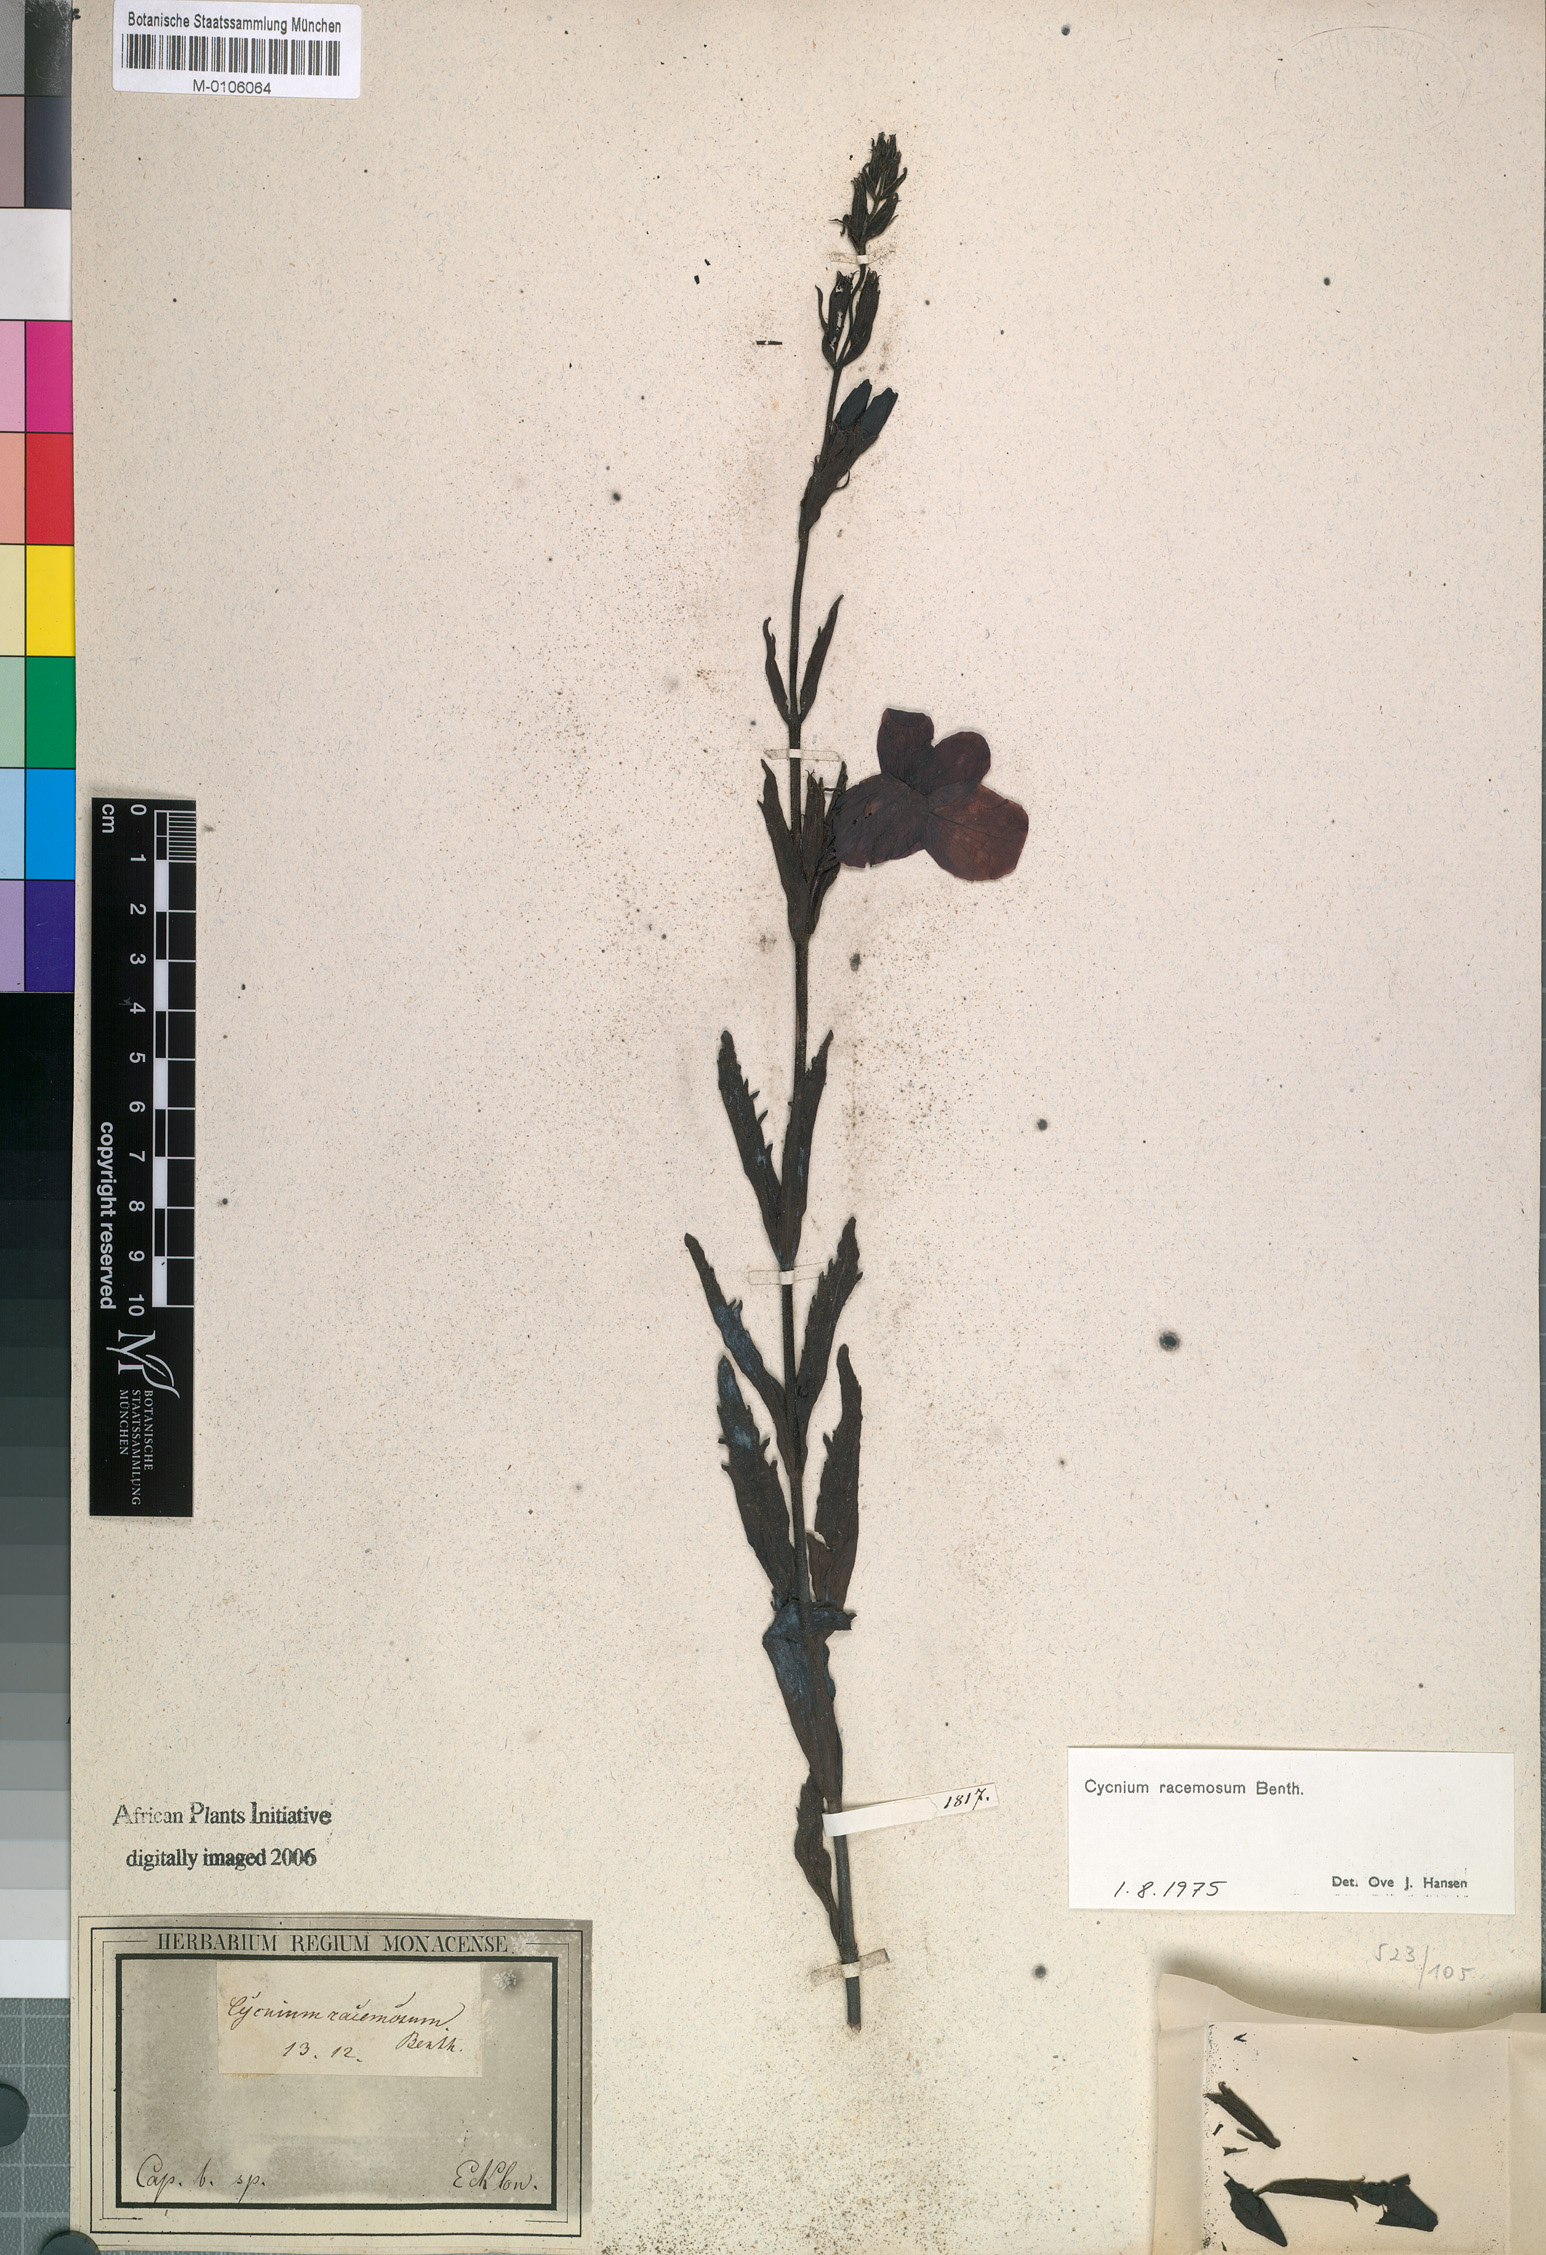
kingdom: Plantae
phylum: Tracheophyta
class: Magnoliopsida
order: Lamiales
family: Orobanchaceae
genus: Cycnium
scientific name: Cycnium racemosum
